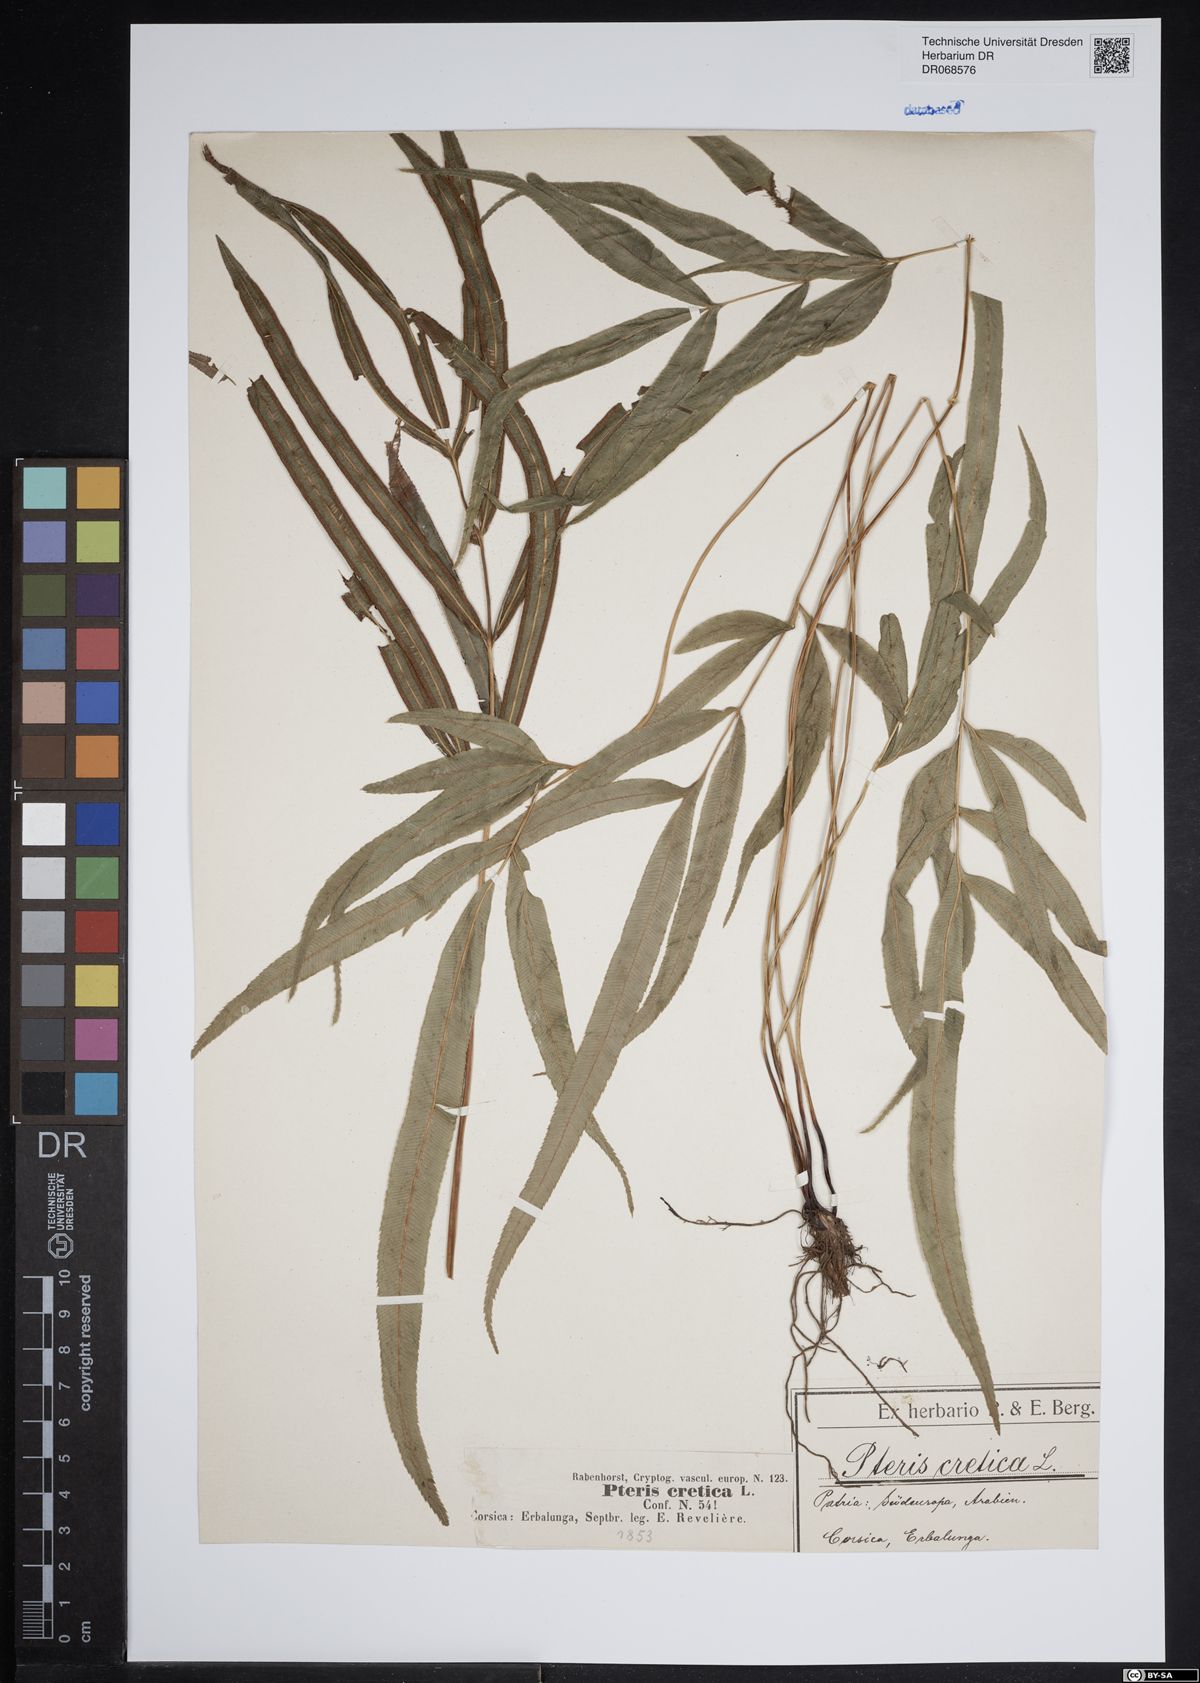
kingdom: Plantae
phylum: Tracheophyta
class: Polypodiopsida
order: Polypodiales
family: Pteridaceae
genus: Pteris
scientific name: Pteris cretica
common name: Ribbon fern
